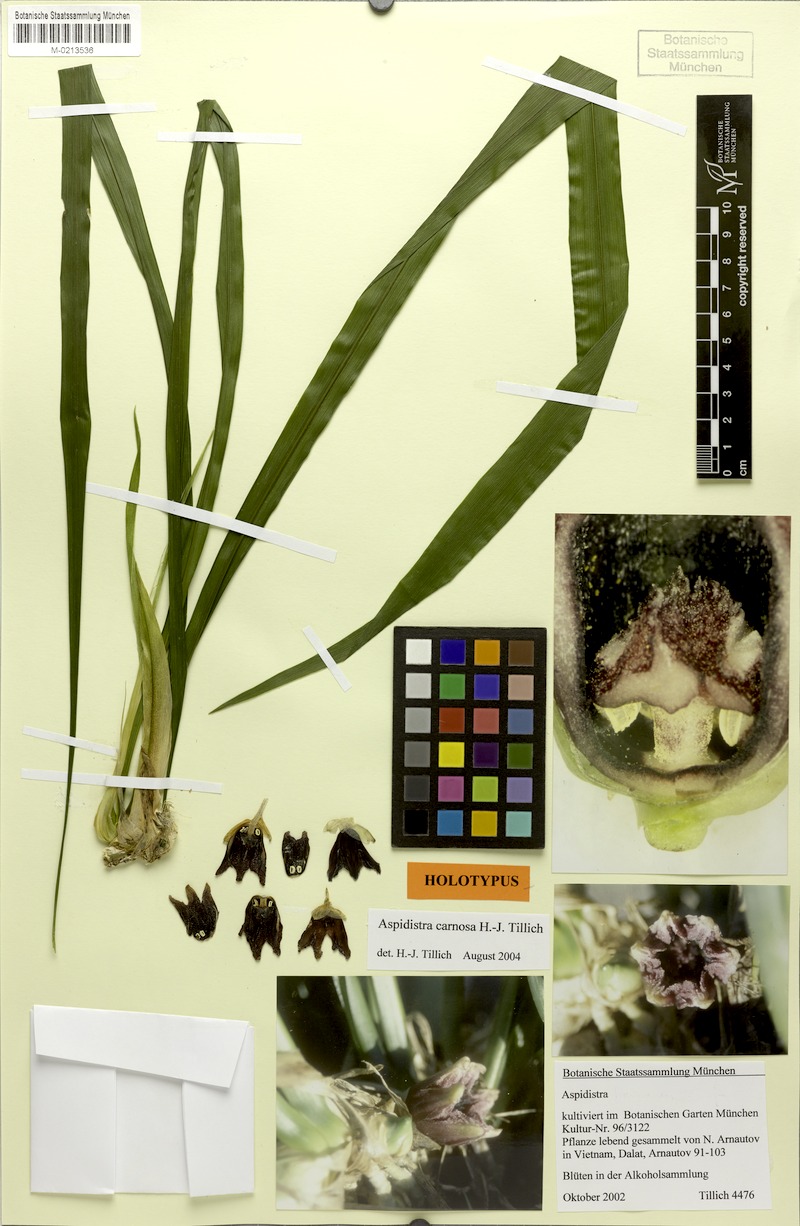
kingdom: Plantae
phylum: Tracheophyta
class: Liliopsida
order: Asparagales
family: Asparagaceae
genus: Aspidistra
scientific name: Aspidistra carnosa
